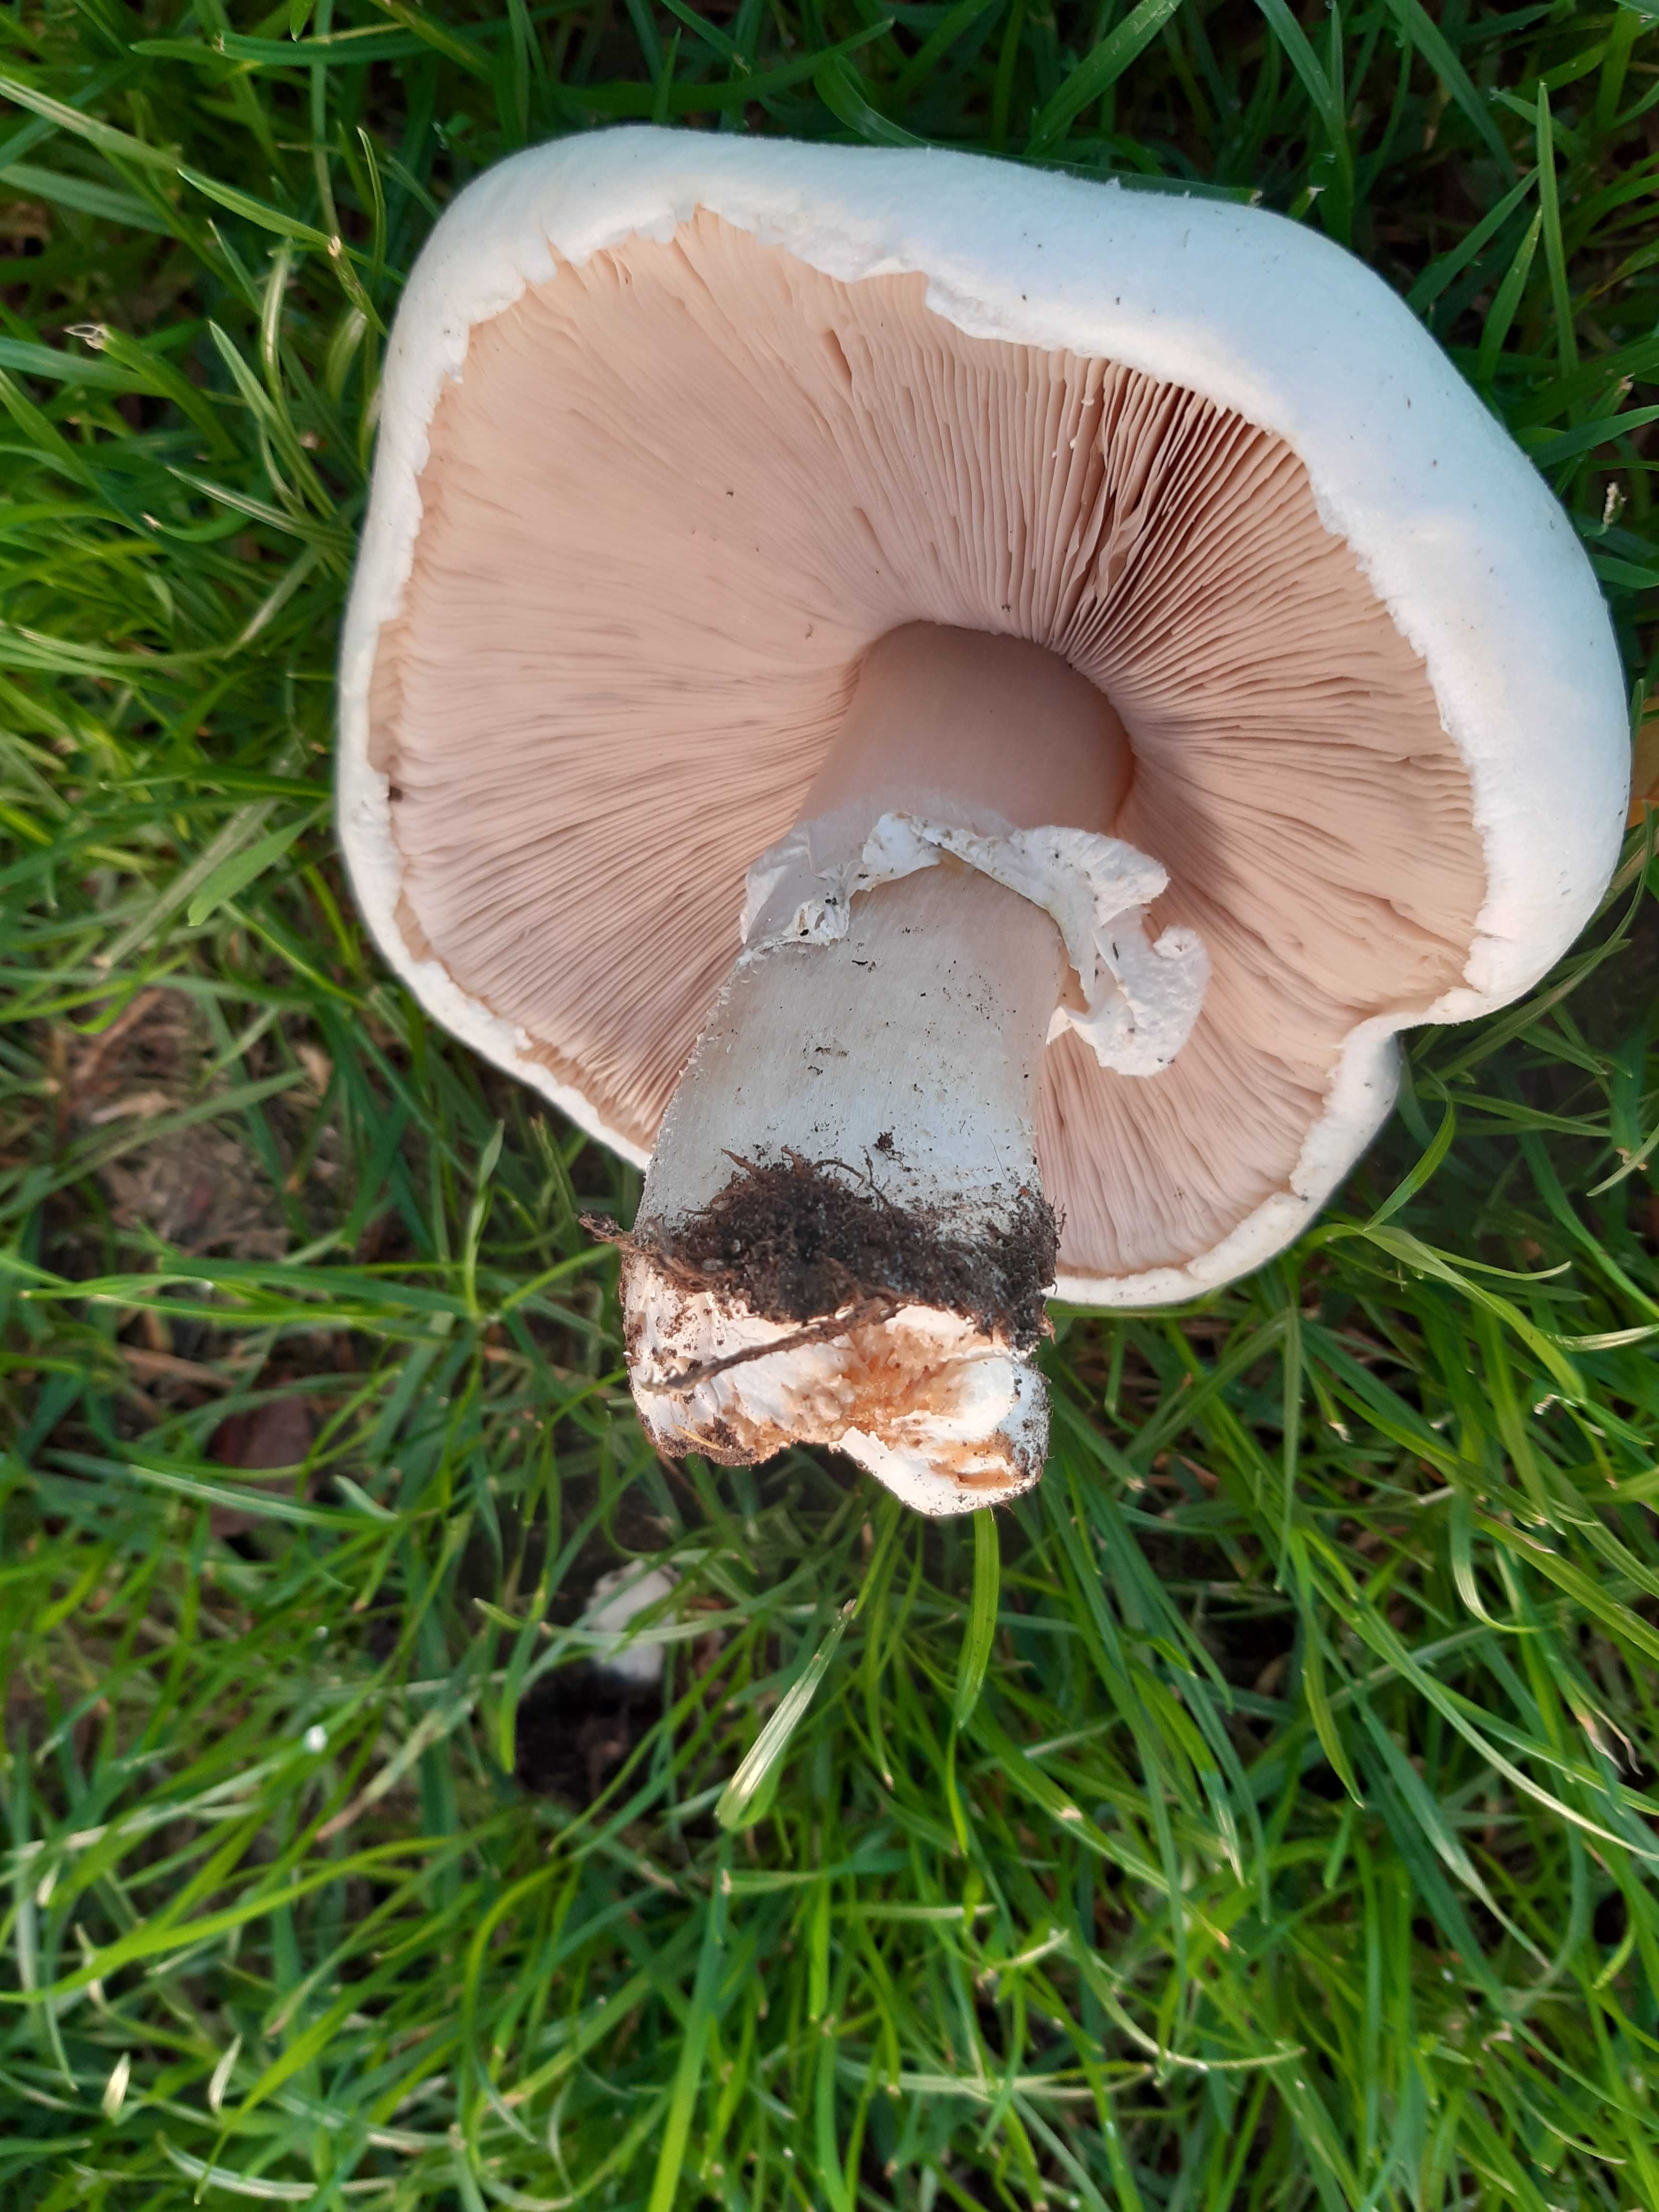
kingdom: Fungi
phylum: Basidiomycota
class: Agaricomycetes
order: Agaricales
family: Agaricaceae
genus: Agaricus
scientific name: Agaricus
